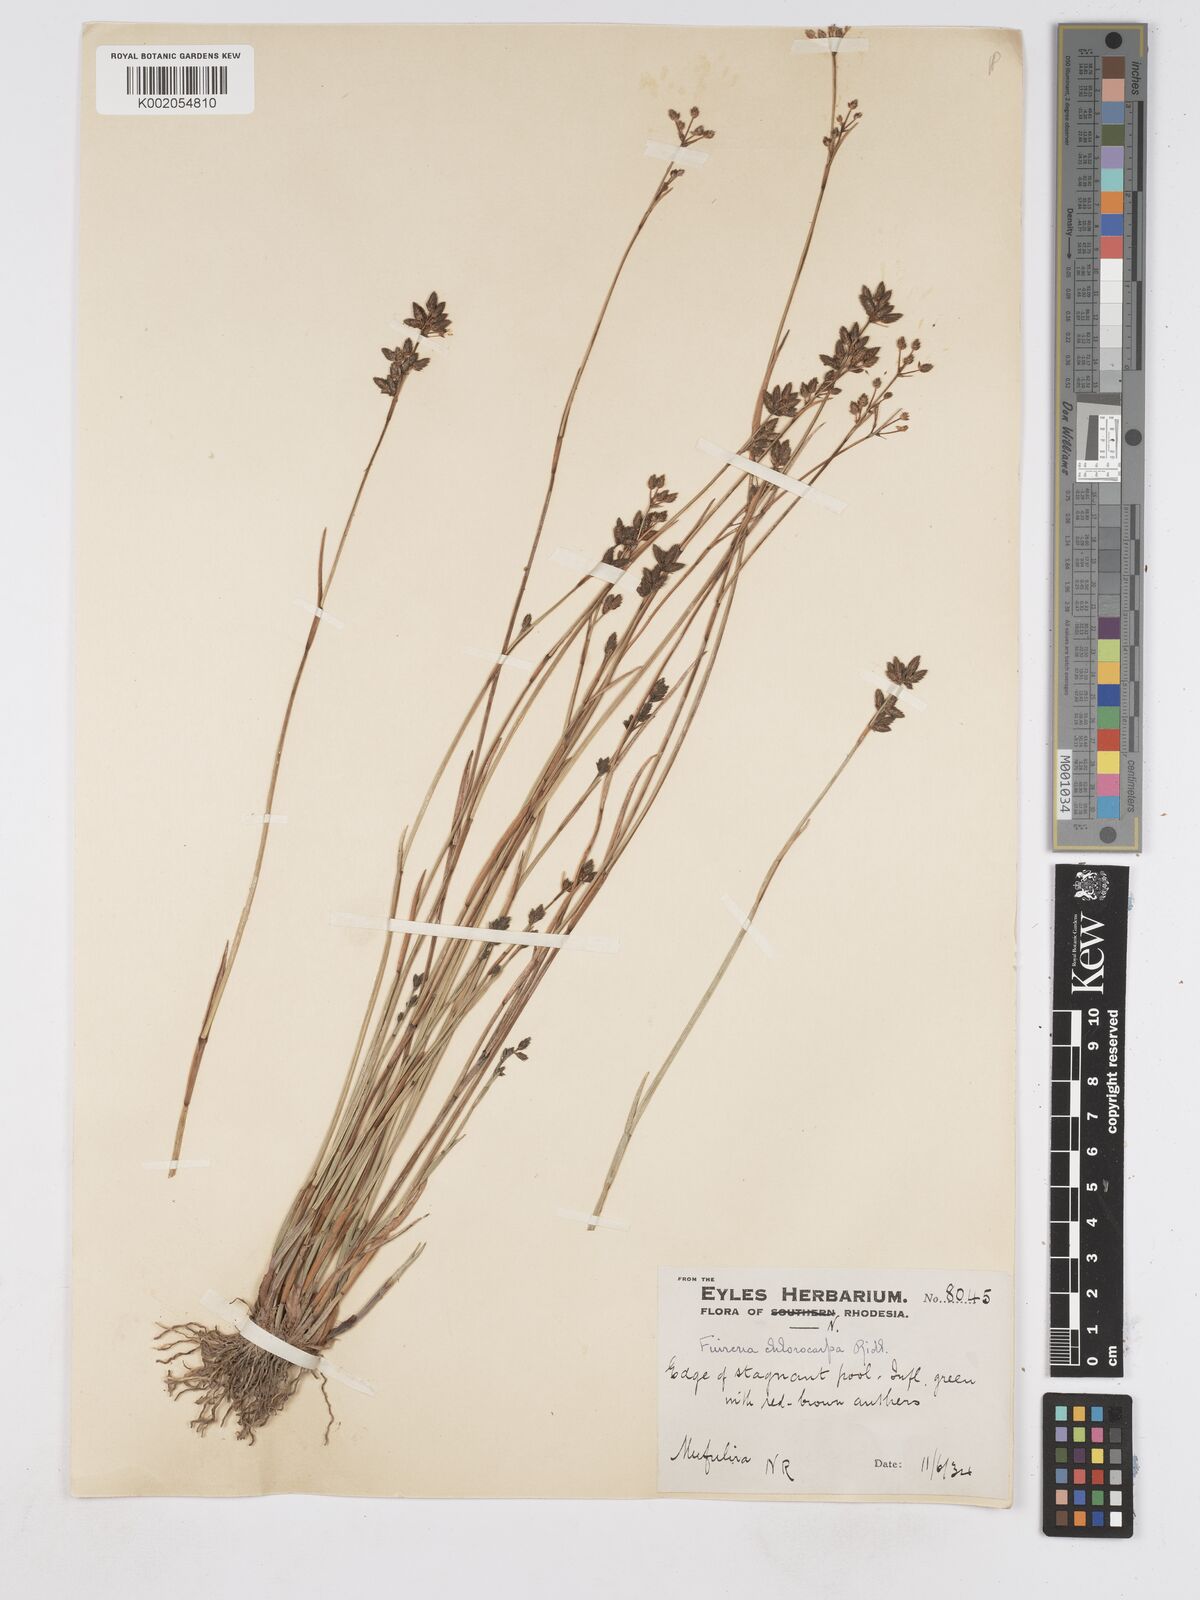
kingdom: Plantae
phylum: Tracheophyta
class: Liliopsida
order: Poales
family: Cyperaceae
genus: Fuirena
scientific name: Fuirena stricta
